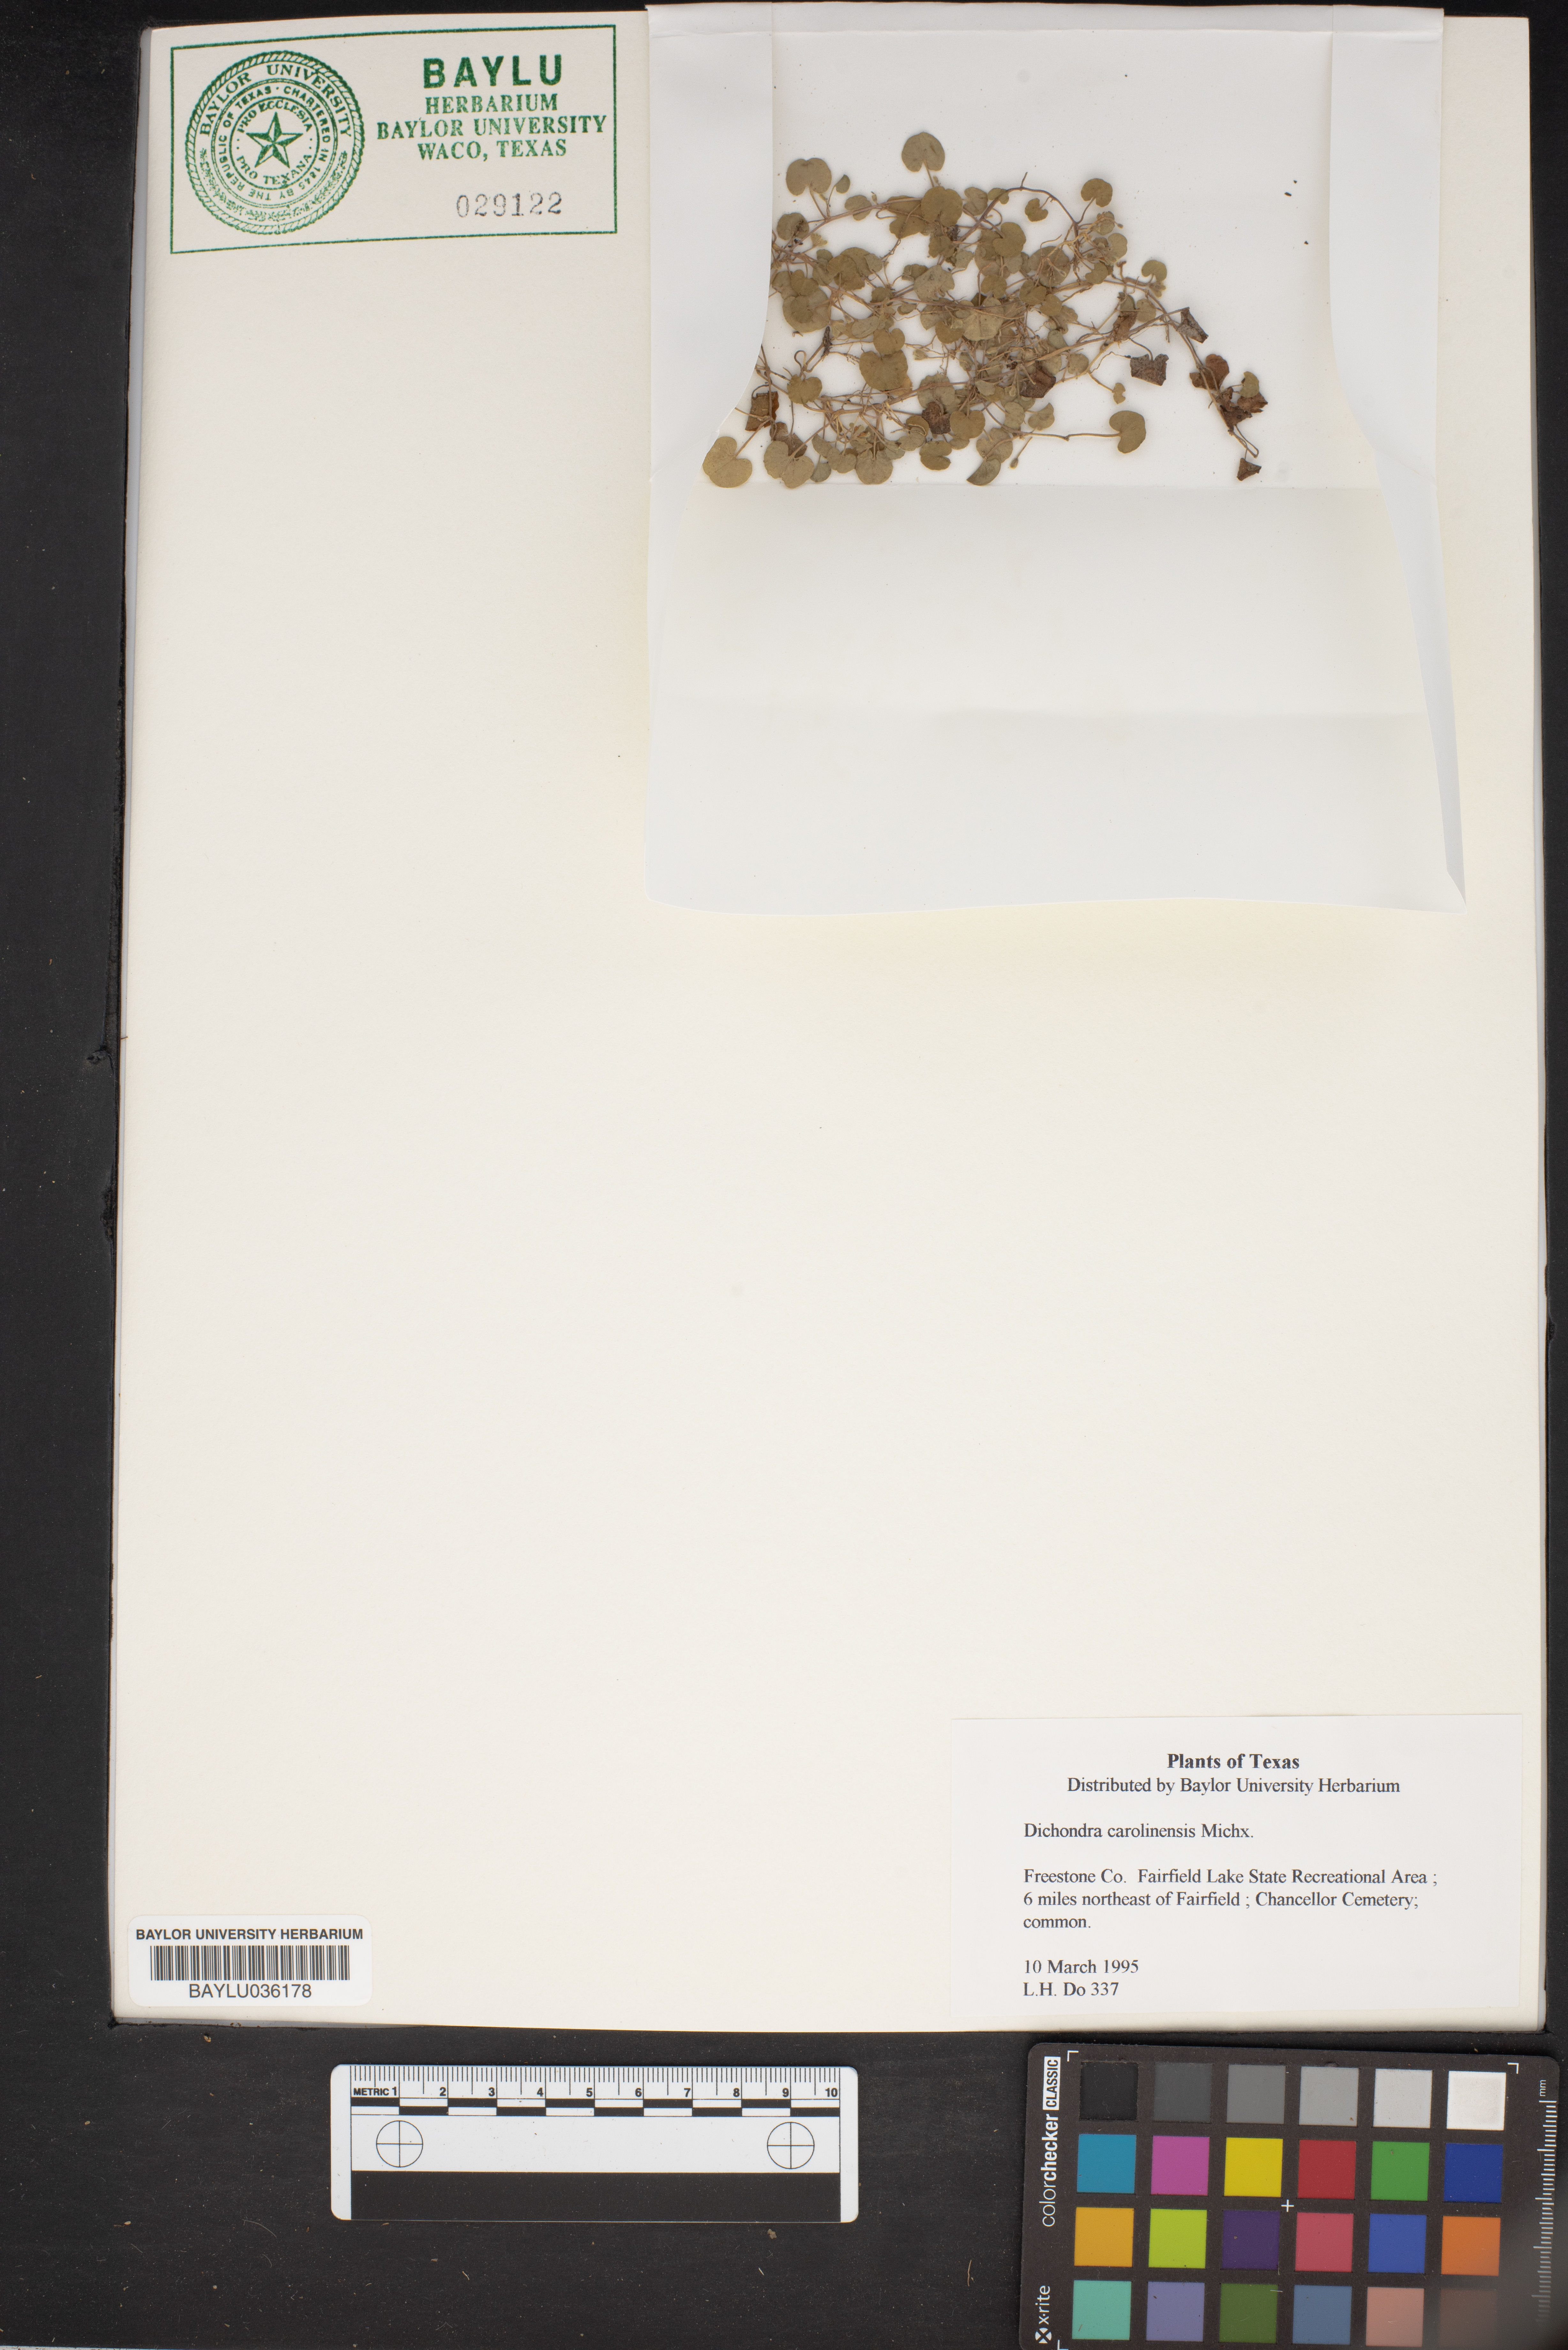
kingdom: Plantae
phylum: Tracheophyta
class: Magnoliopsida
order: Solanales
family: Convolvulaceae
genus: Dichondra
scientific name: Dichondra carolinensis
